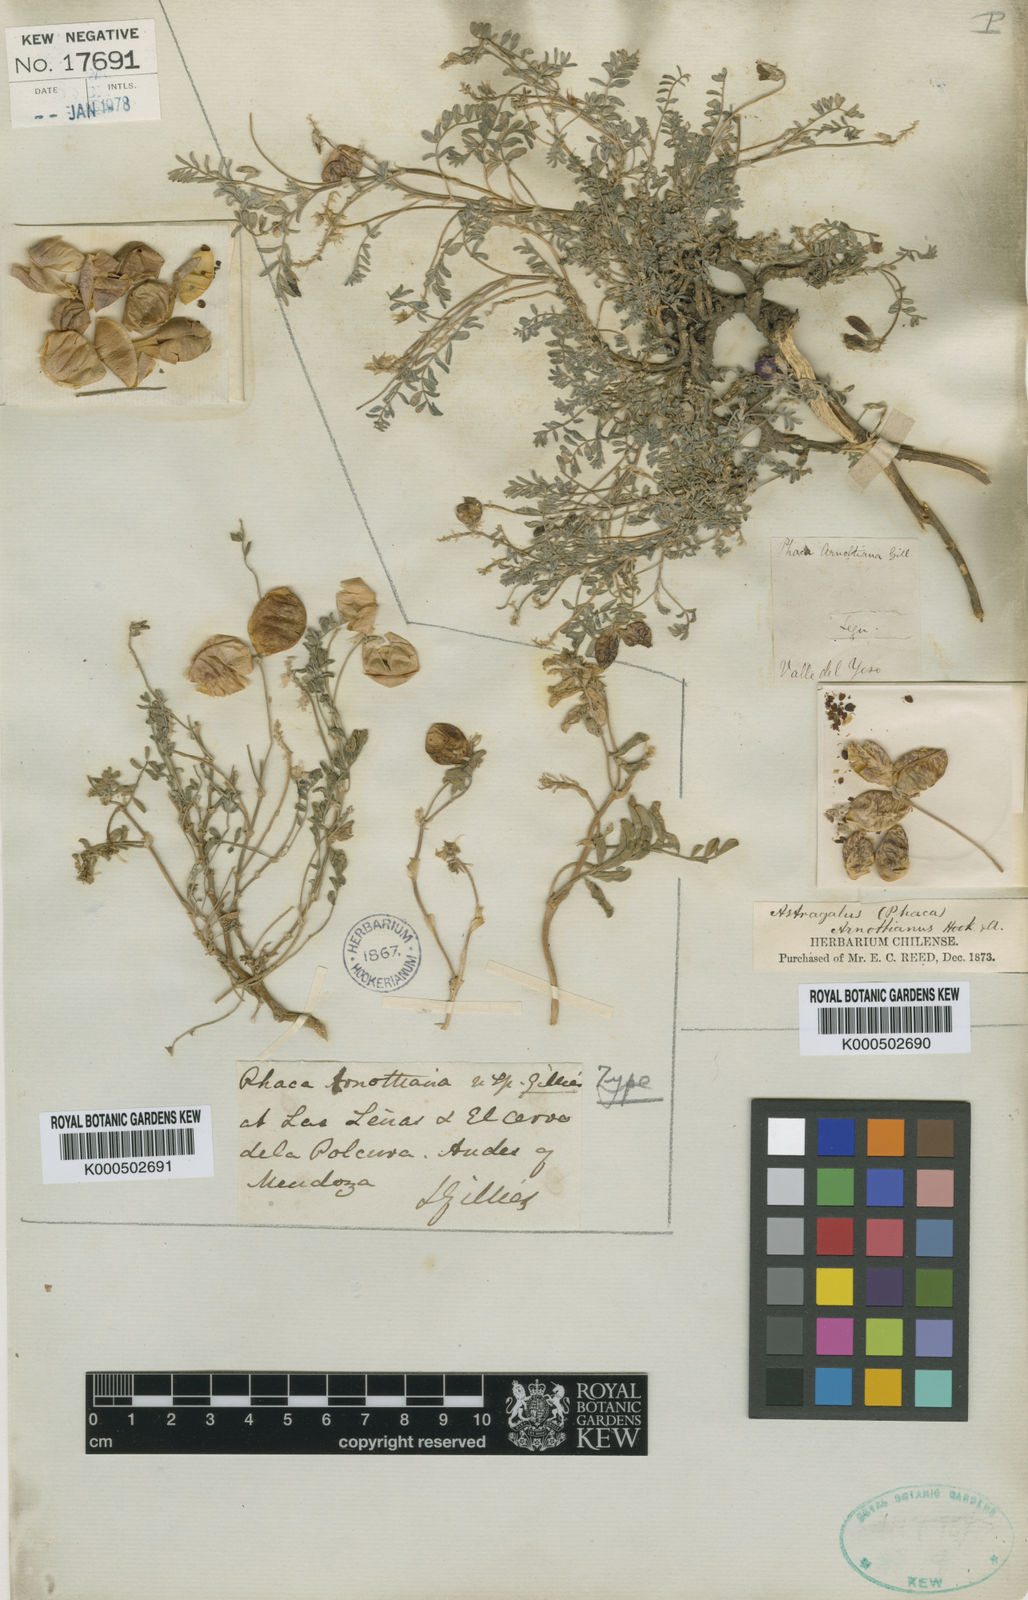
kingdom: Plantae
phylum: Tracheophyta
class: Magnoliopsida
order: Fabales
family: Fabaceae
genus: Astragalus
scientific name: Astragalus
